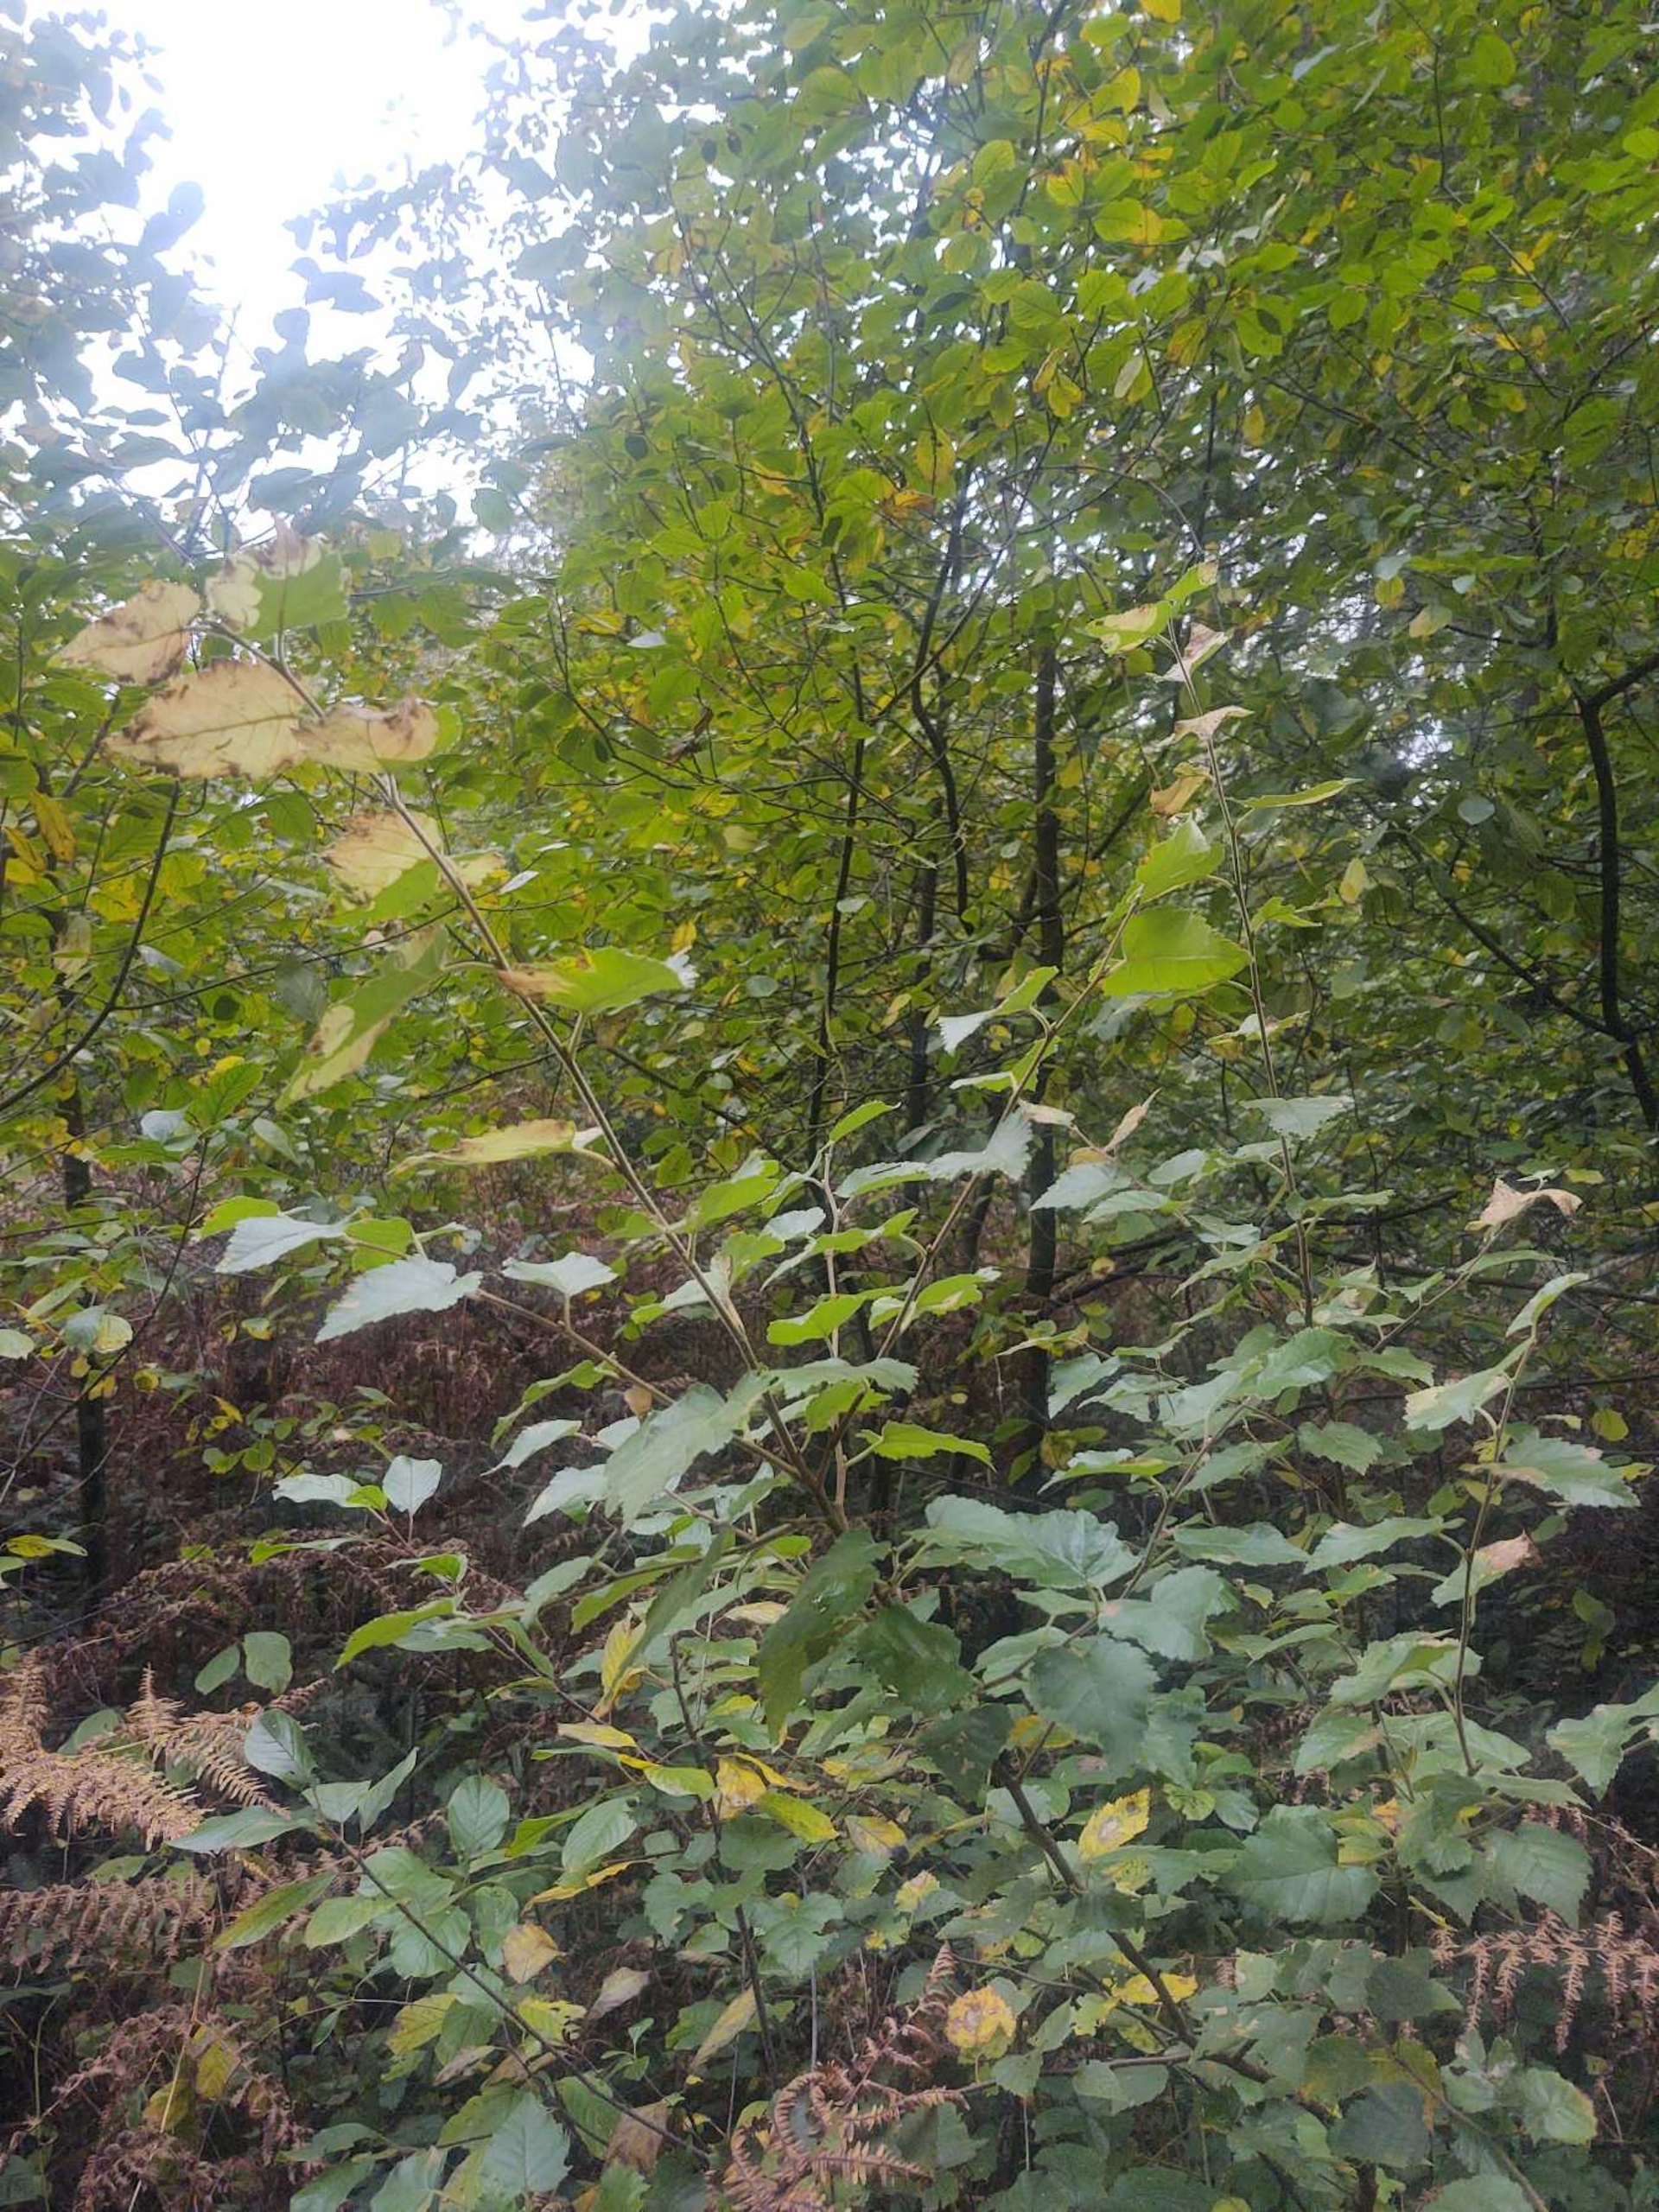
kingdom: Plantae
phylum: Tracheophyta
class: Magnoliopsida
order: Fagales
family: Betulaceae
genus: Betula
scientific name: Betula pubescens
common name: Dun-birk
